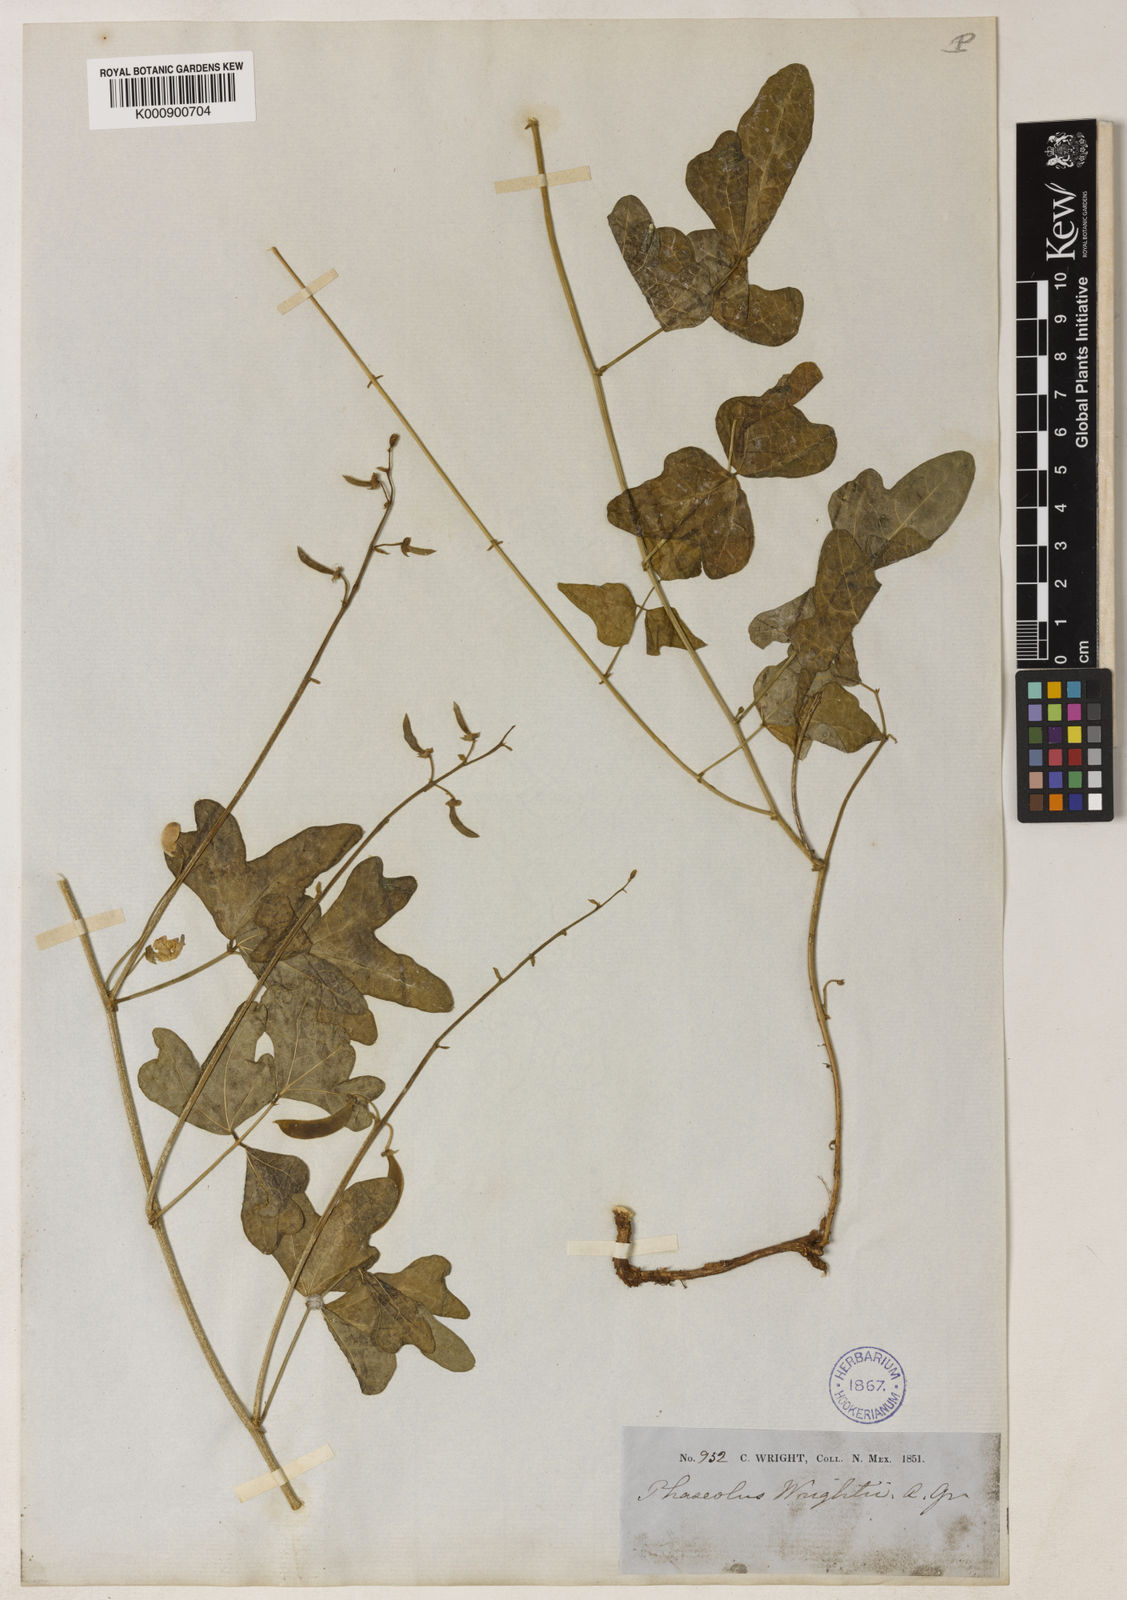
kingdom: Plantae
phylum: Tracheophyta
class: Magnoliopsida
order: Fabales
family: Fabaceae
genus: Phaseolus
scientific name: Phaseolus filiformis
